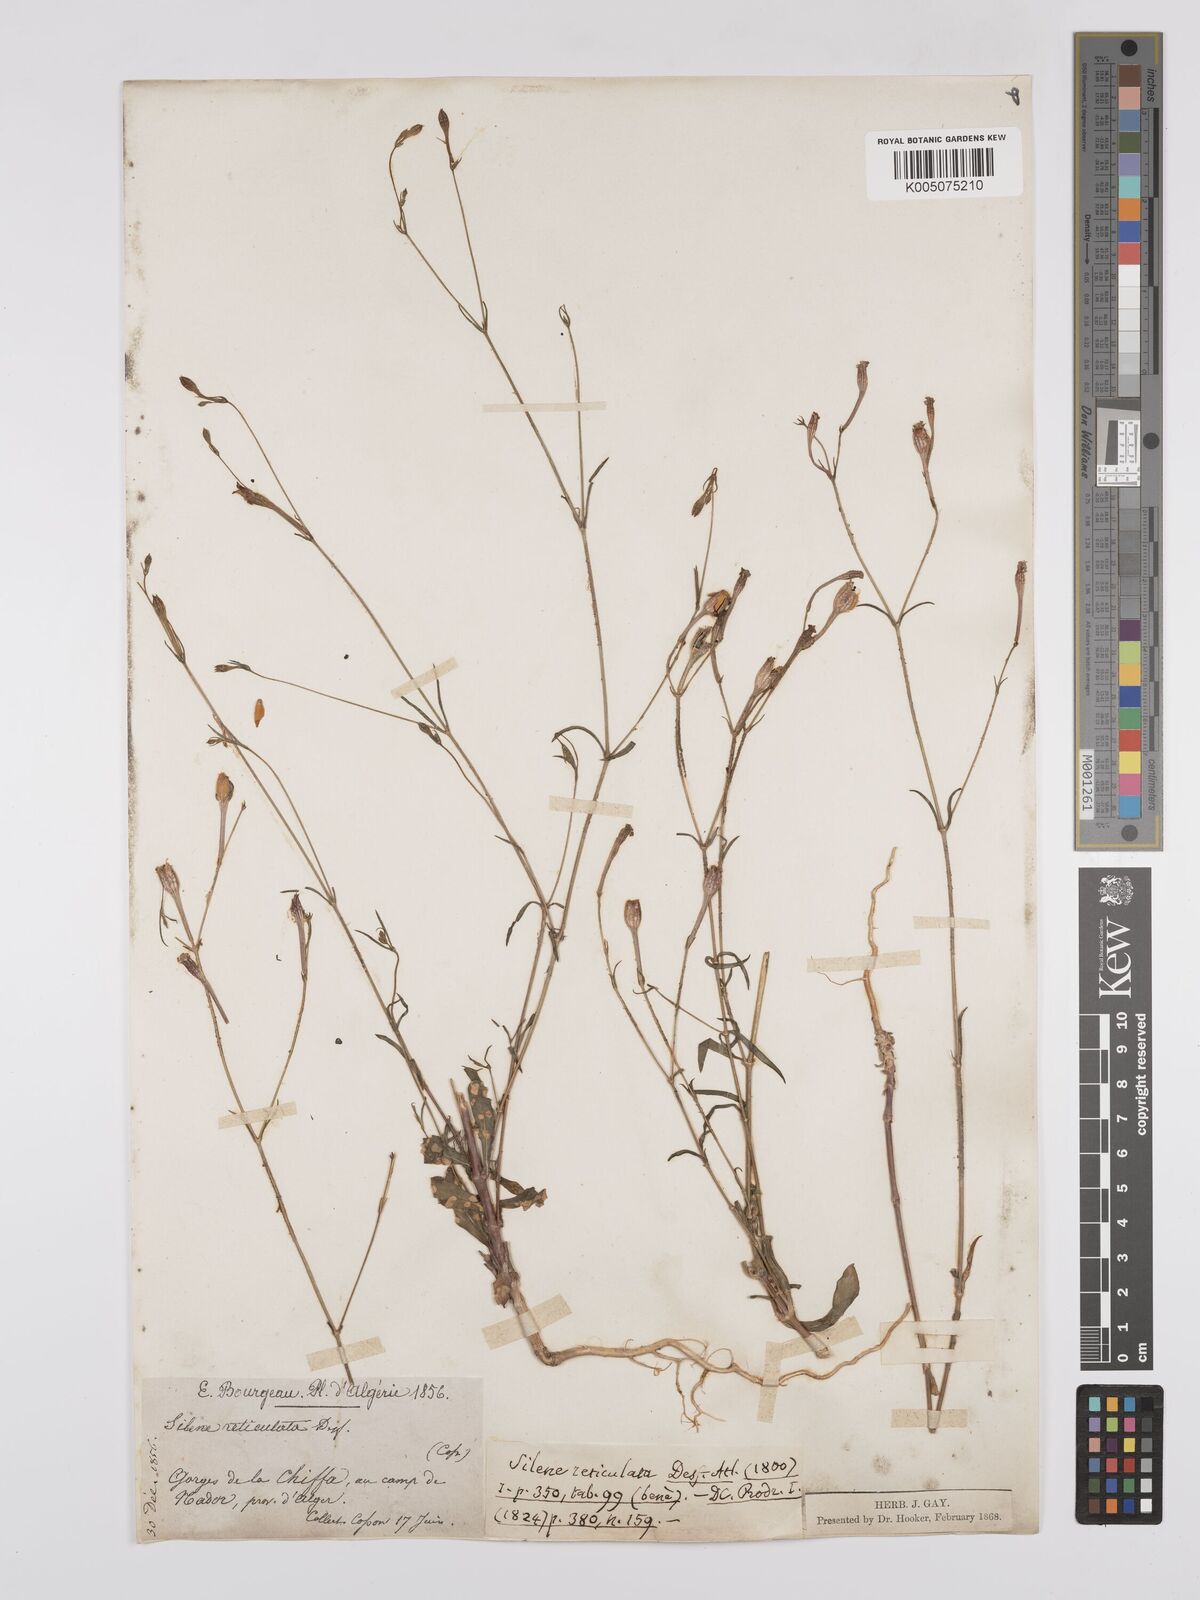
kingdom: Plantae
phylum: Tracheophyta
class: Magnoliopsida
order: Caryophyllales
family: Caryophyllaceae
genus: Silene
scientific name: Silene ramosissima
